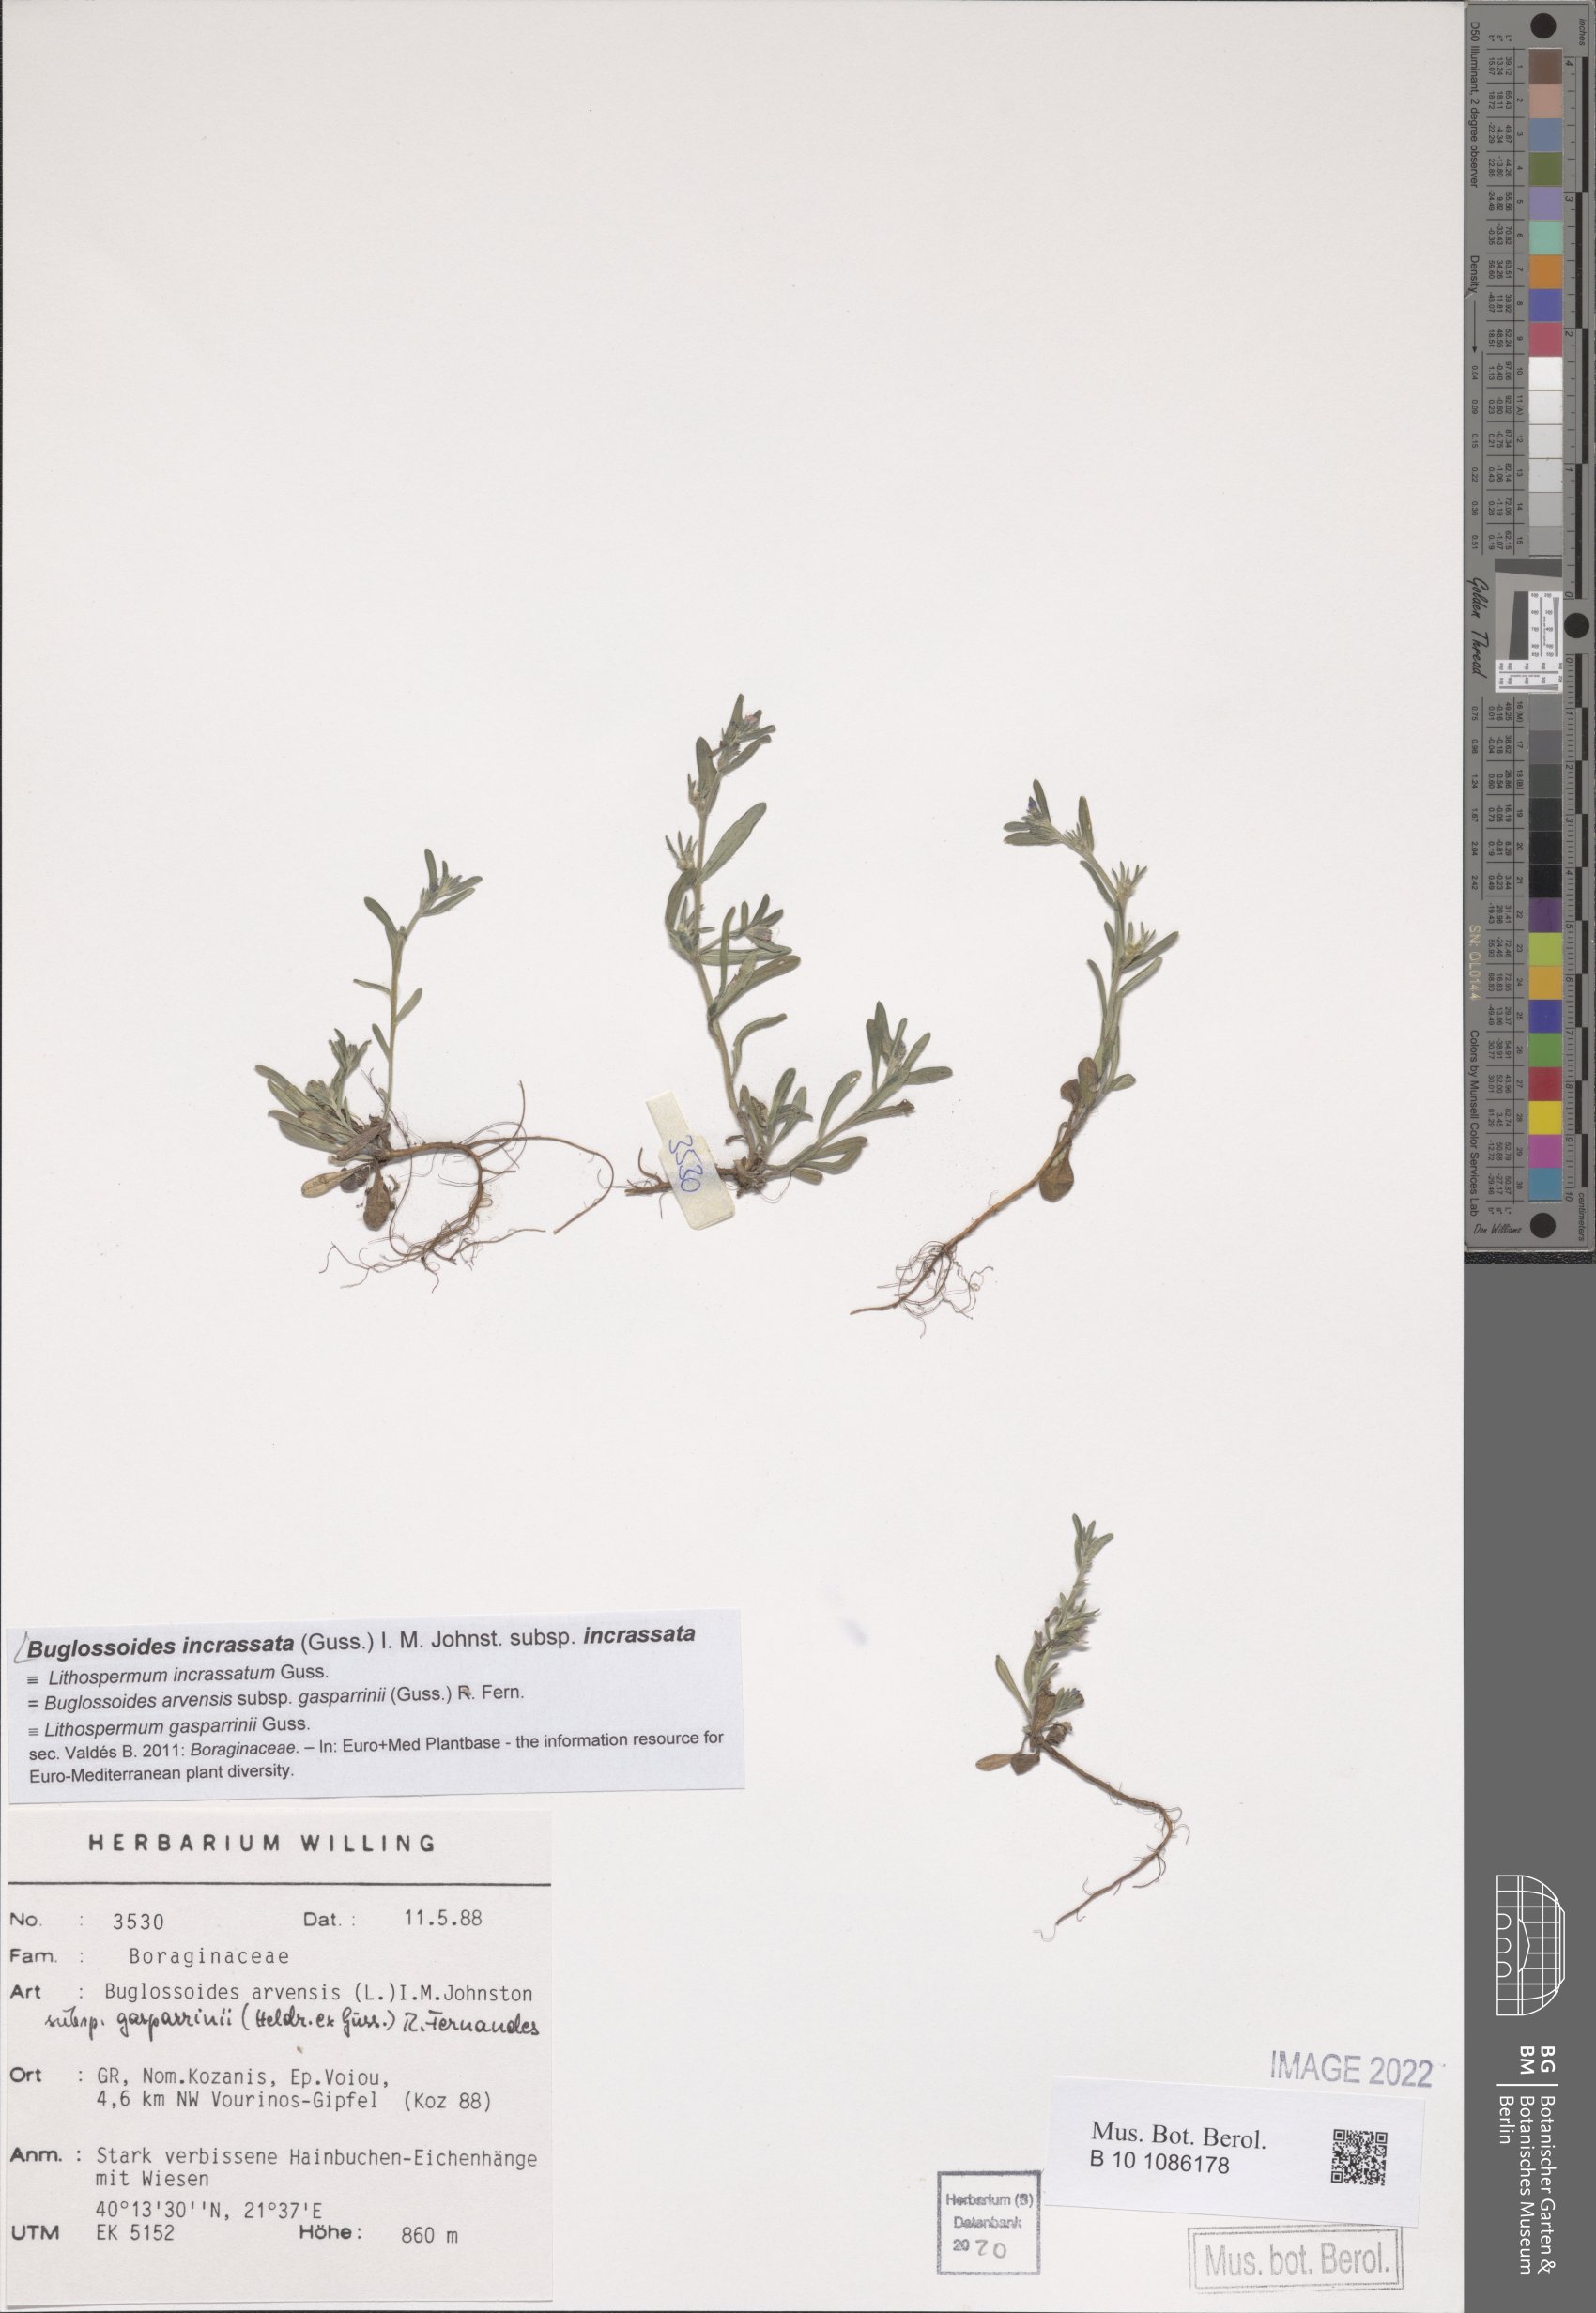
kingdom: Plantae
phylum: Tracheophyta
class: Magnoliopsida
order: Boraginales
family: Boraginaceae
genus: Buglossoides
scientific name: Buglossoides incrassata
